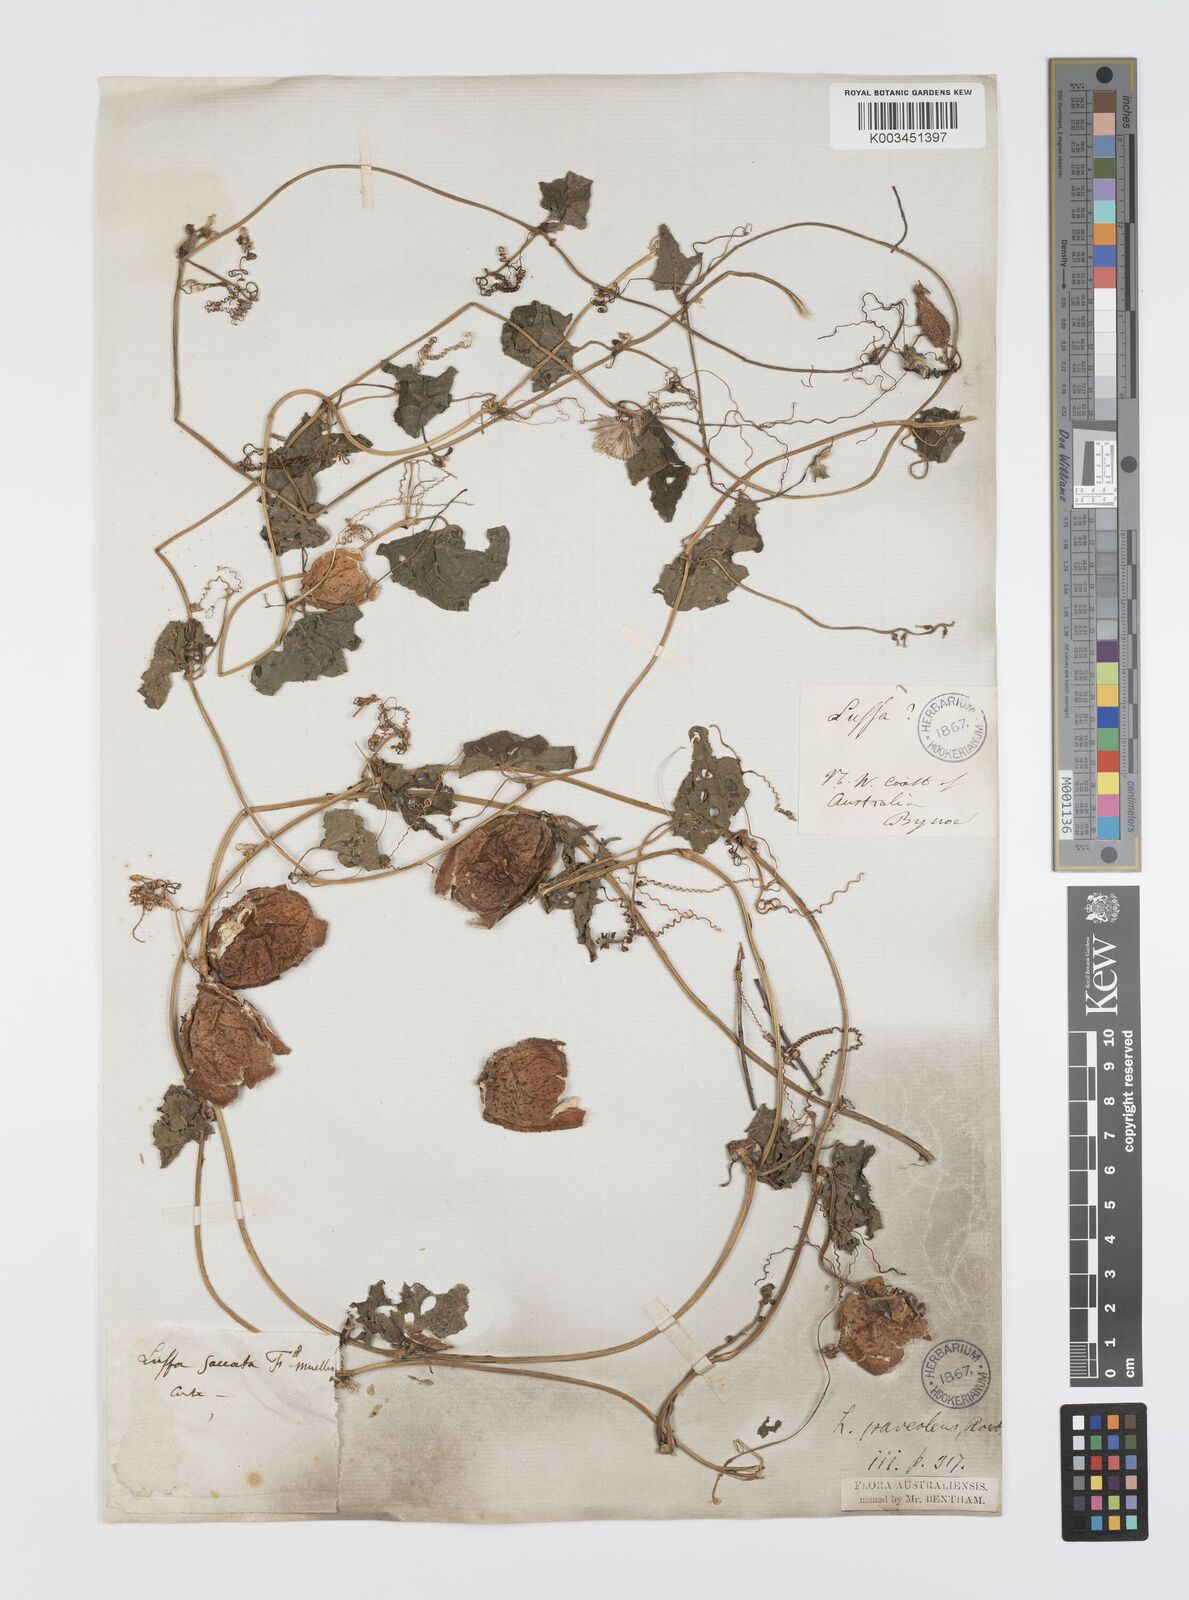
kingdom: Plantae
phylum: Tracheophyta
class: Magnoliopsida
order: Cucurbitales
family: Cucurbitaceae
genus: Luffa
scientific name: Luffa graveolens
